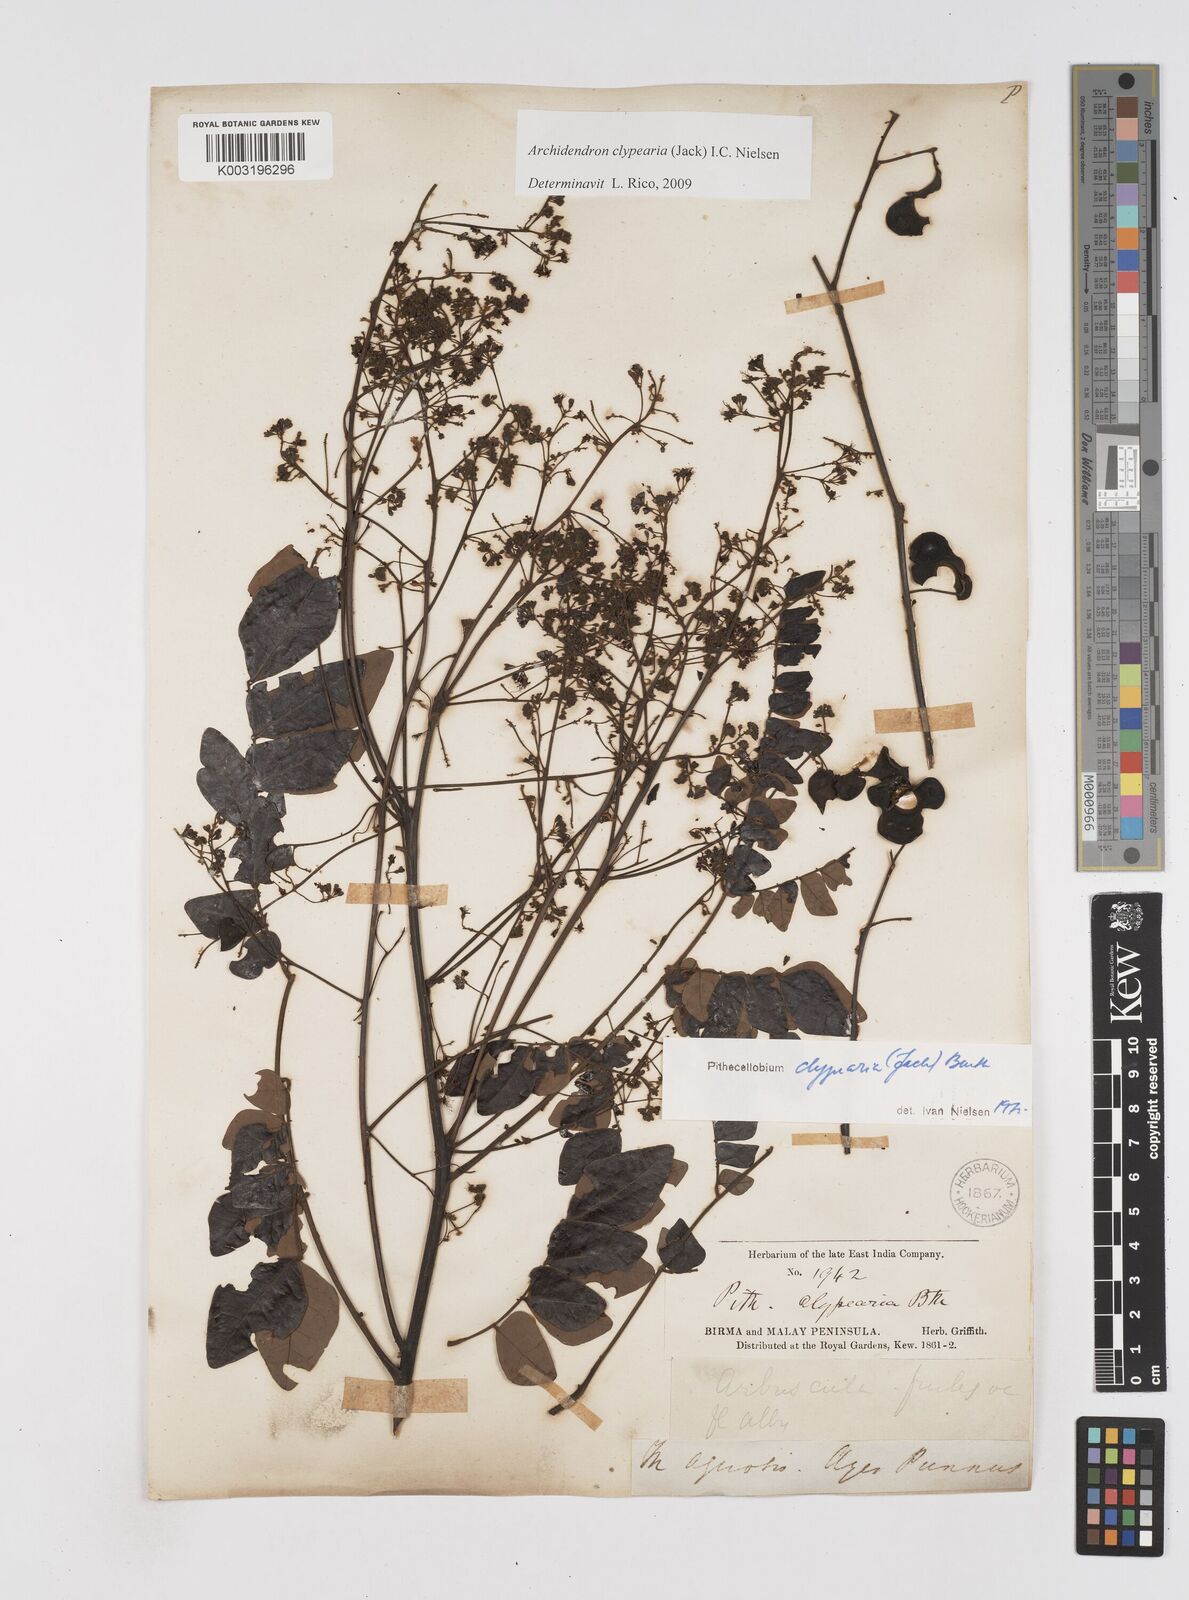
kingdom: Plantae
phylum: Tracheophyta
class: Magnoliopsida
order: Fabales
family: Fabaceae
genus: Archidendron
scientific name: Archidendron clypearia
